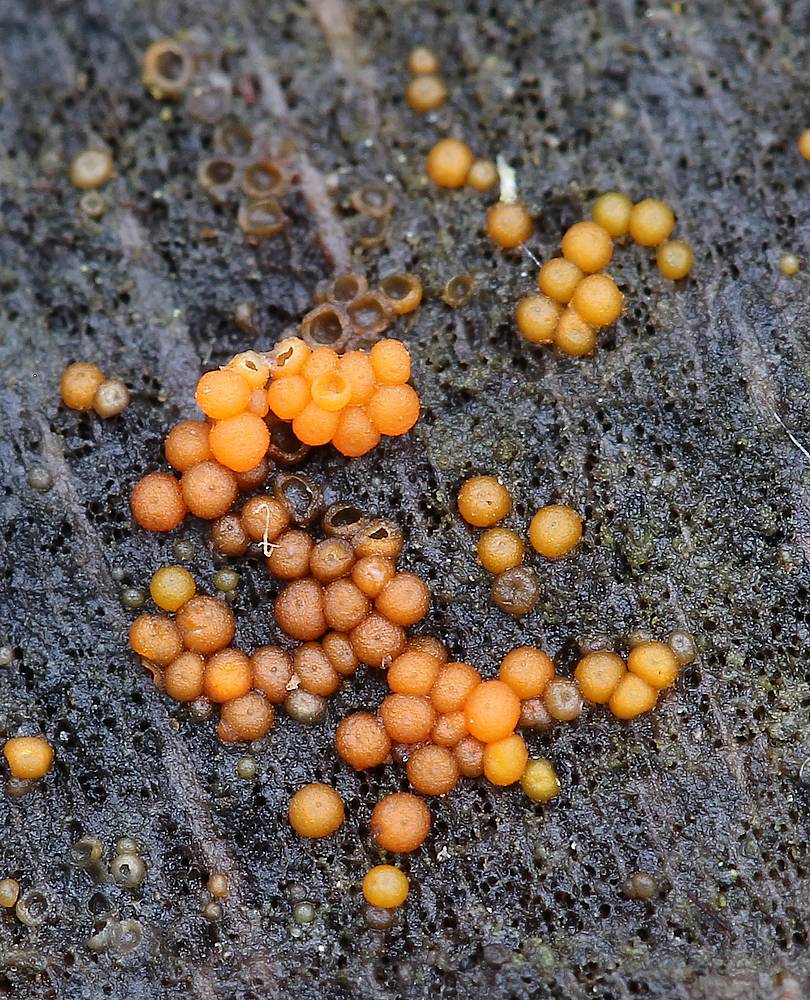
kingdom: Fungi
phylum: Ascomycota
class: Sordariomycetes
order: Hypocreales
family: Nectriaceae
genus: Hydropisphaera
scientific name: Hydropisphaera peziza
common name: skålformet gyldenkerne
